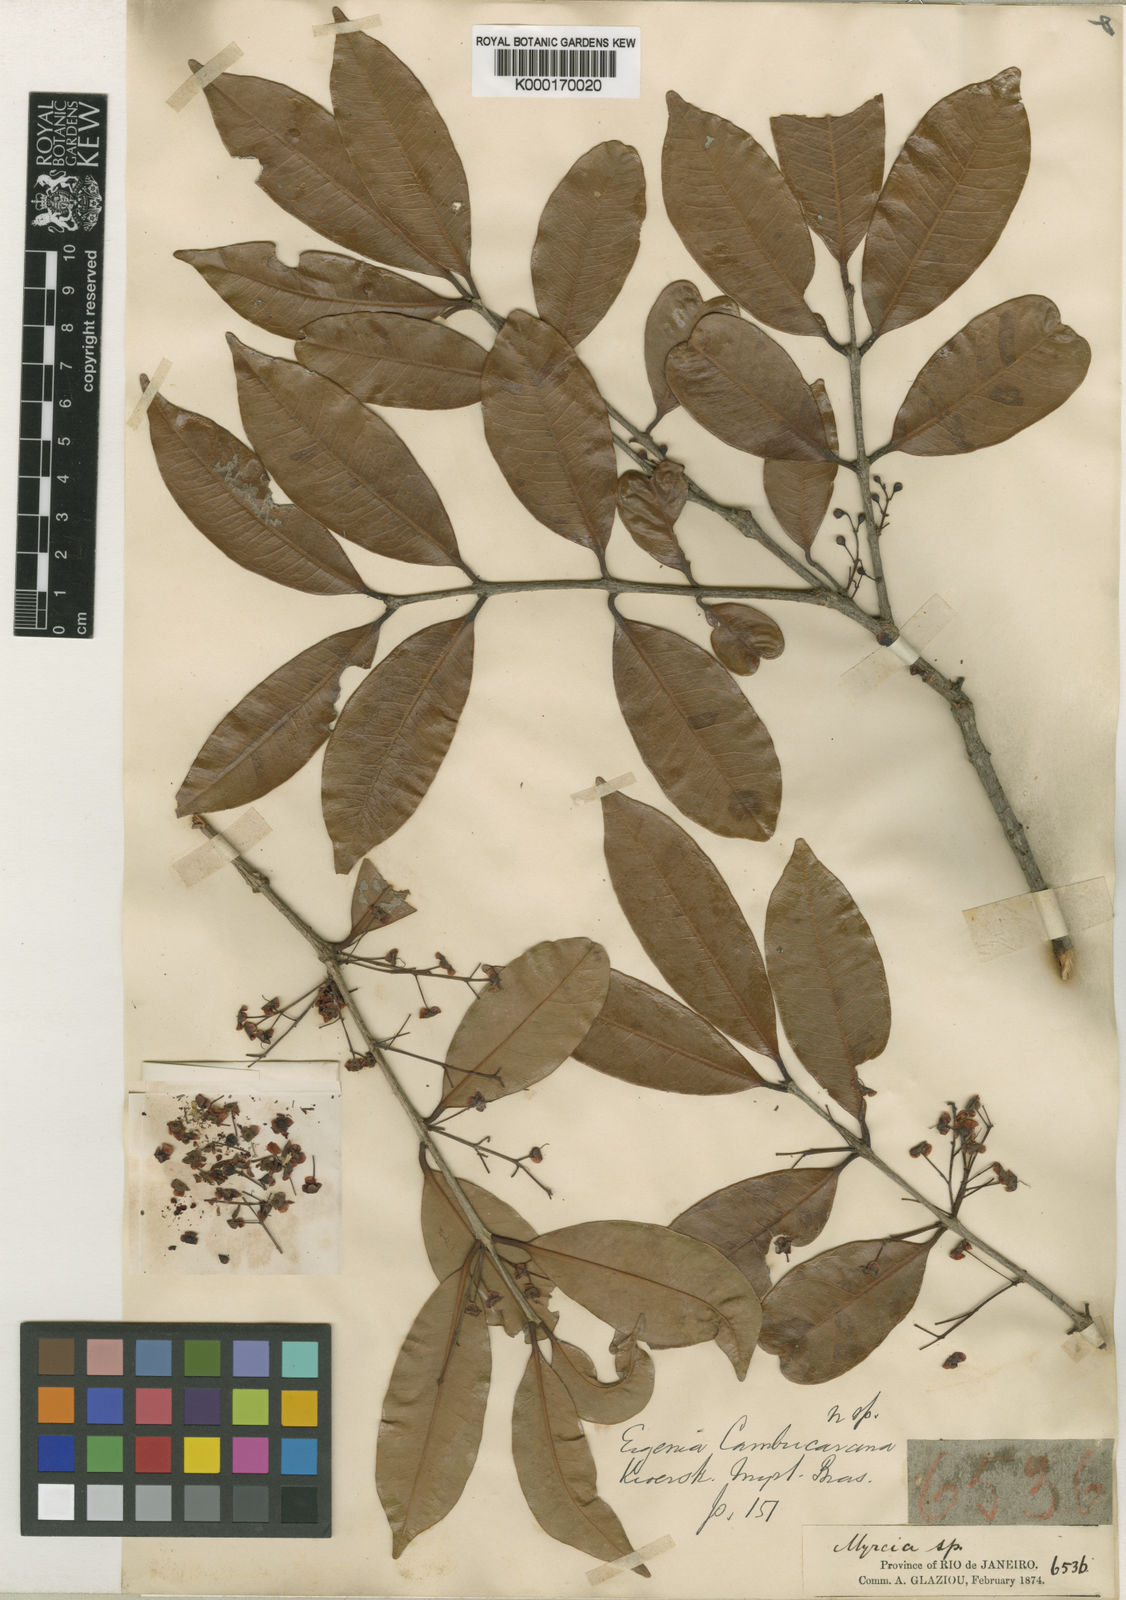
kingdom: Plantae
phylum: Tracheophyta
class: Magnoliopsida
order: Myrtales
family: Myrtaceae
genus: Eugenia
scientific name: Eugenia supraaxillaris
